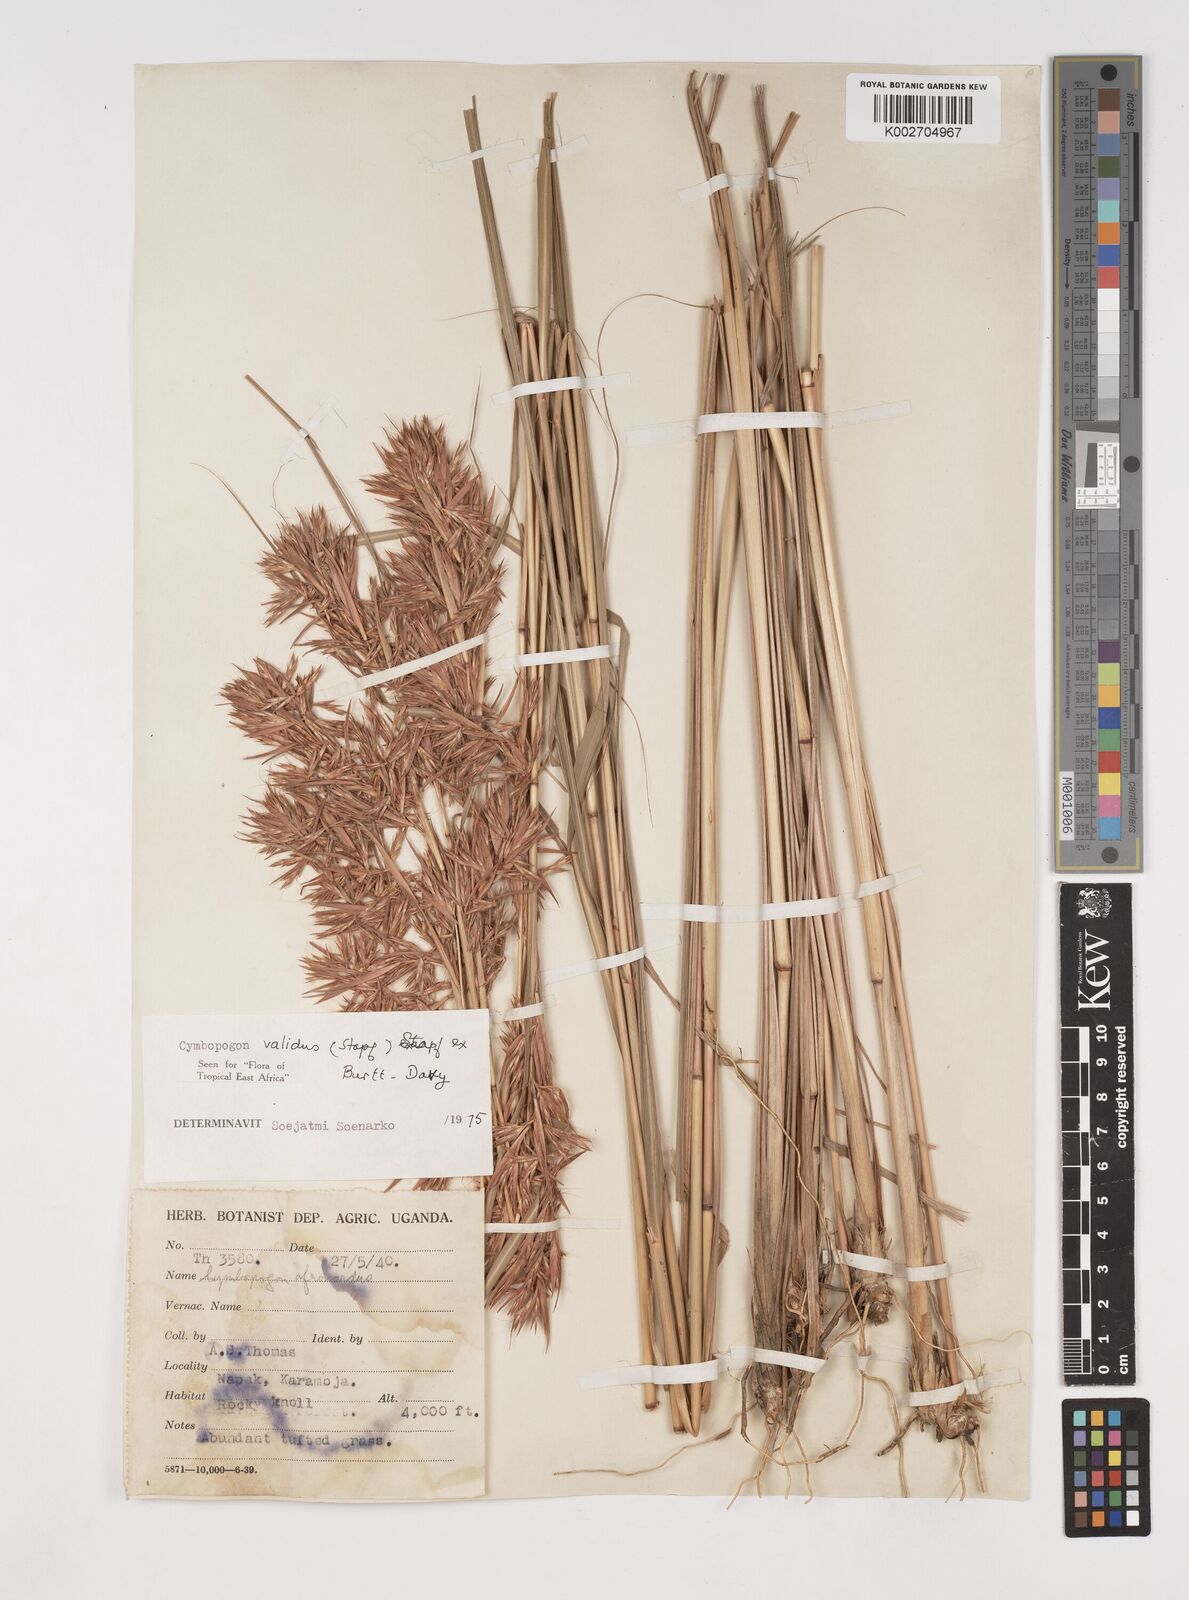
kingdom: Plantae
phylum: Tracheophyta
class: Liliopsida
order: Poales
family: Poaceae
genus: Cymbopogon
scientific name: Cymbopogon nardus
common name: Giant turpentine grass
